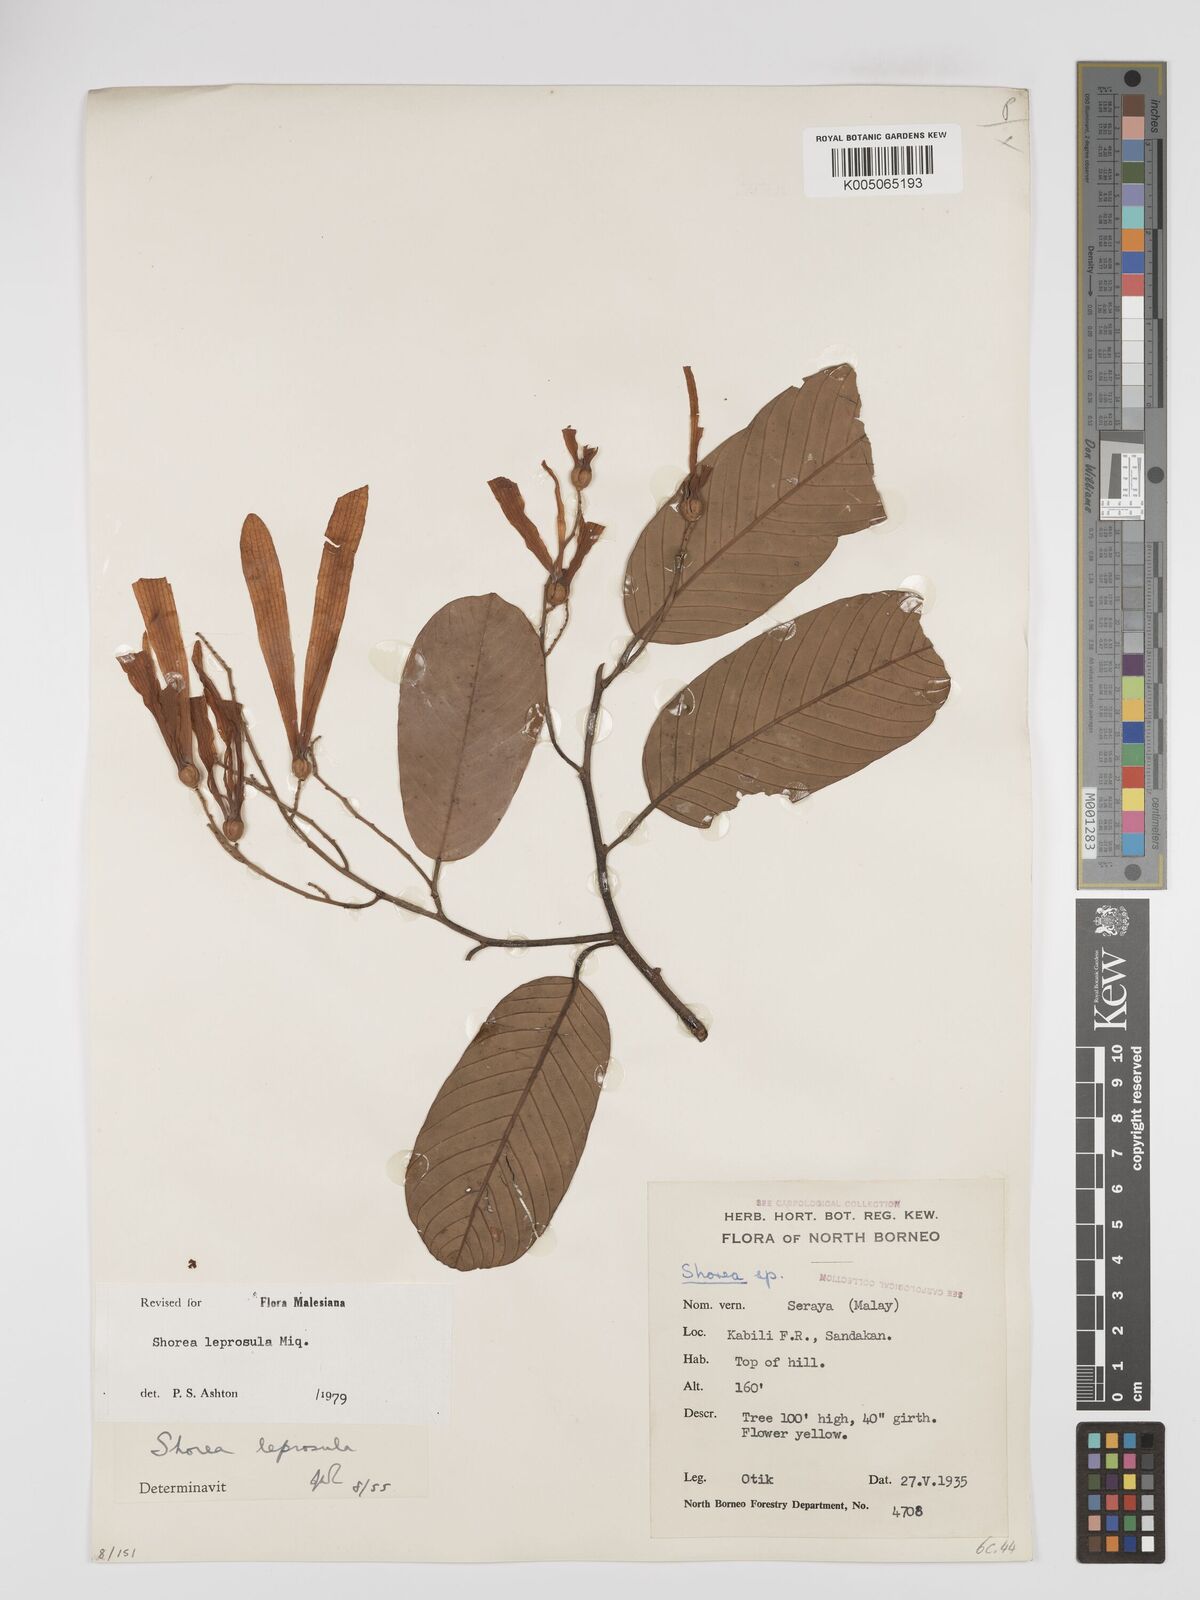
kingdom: Plantae
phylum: Tracheophyta
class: Magnoliopsida
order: Malvales
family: Dipterocarpaceae
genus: Shorea
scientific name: Shorea leprosula
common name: Light red meranti
